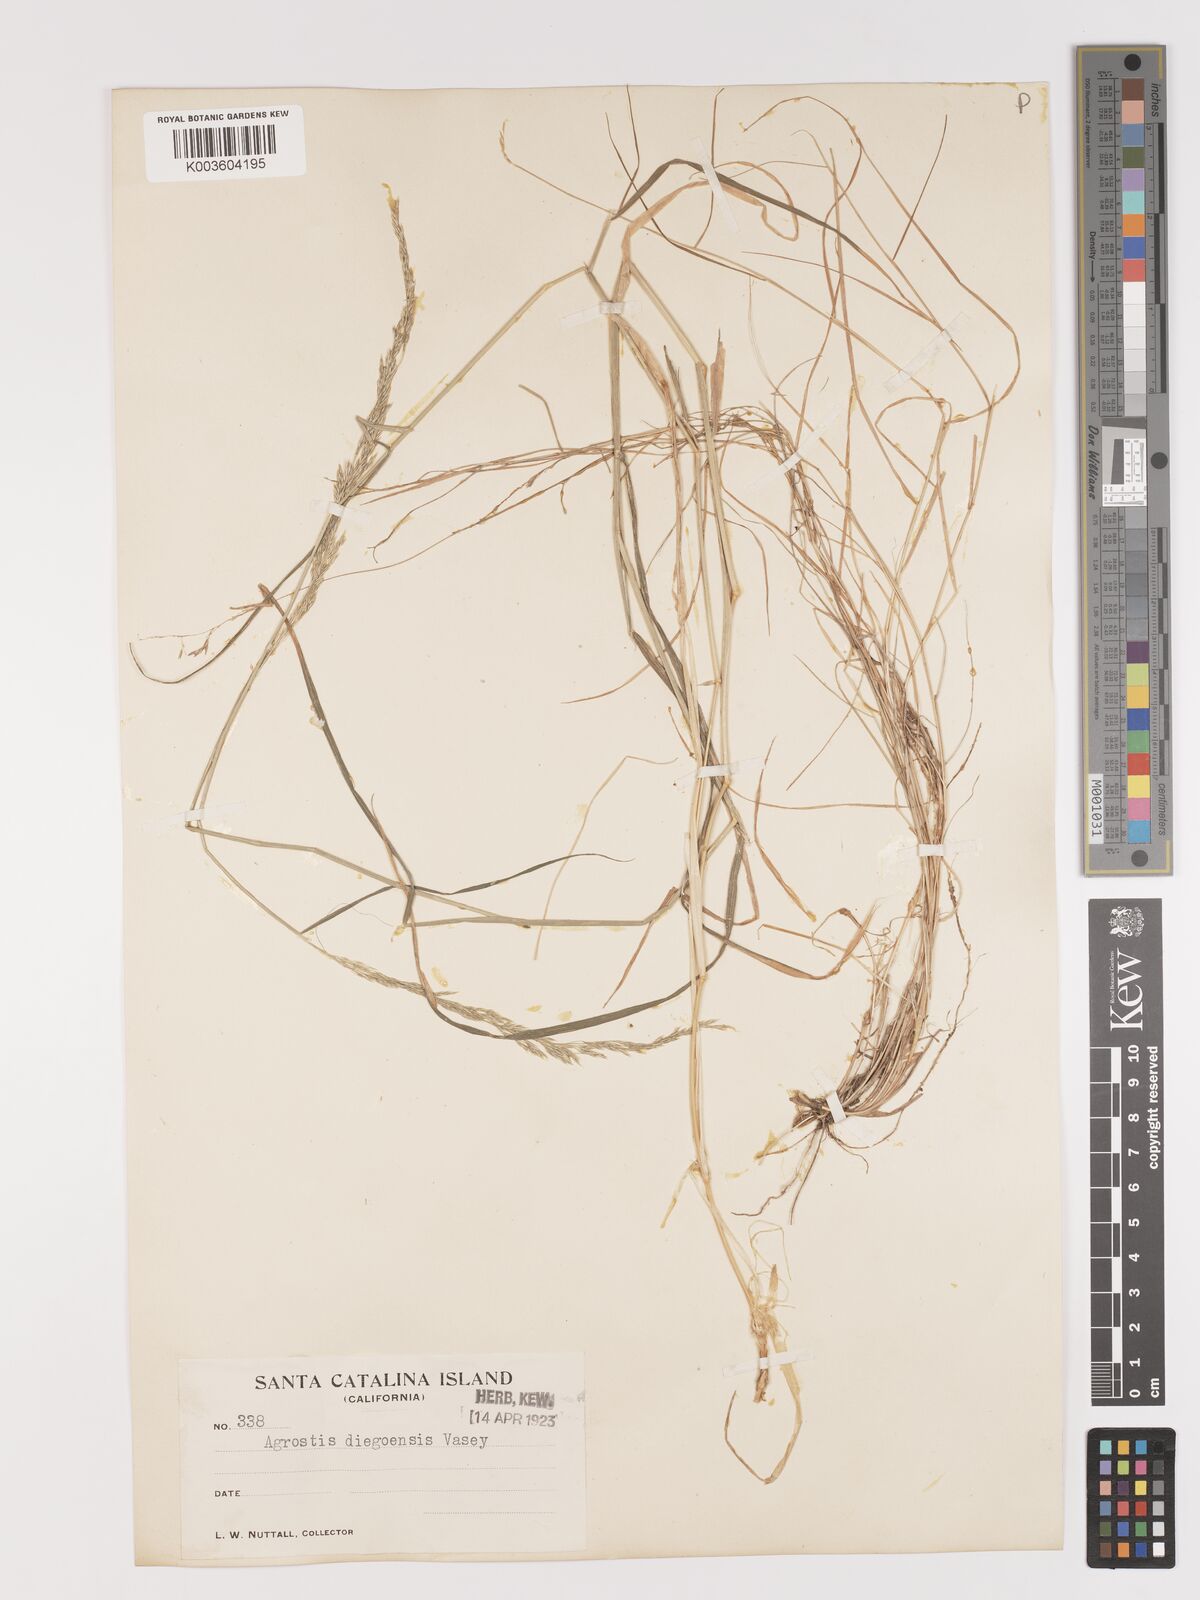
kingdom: Plantae
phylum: Tracheophyta
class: Liliopsida
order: Poales
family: Poaceae
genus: Agrostis
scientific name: Agrostis pallens
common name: Dune bent
